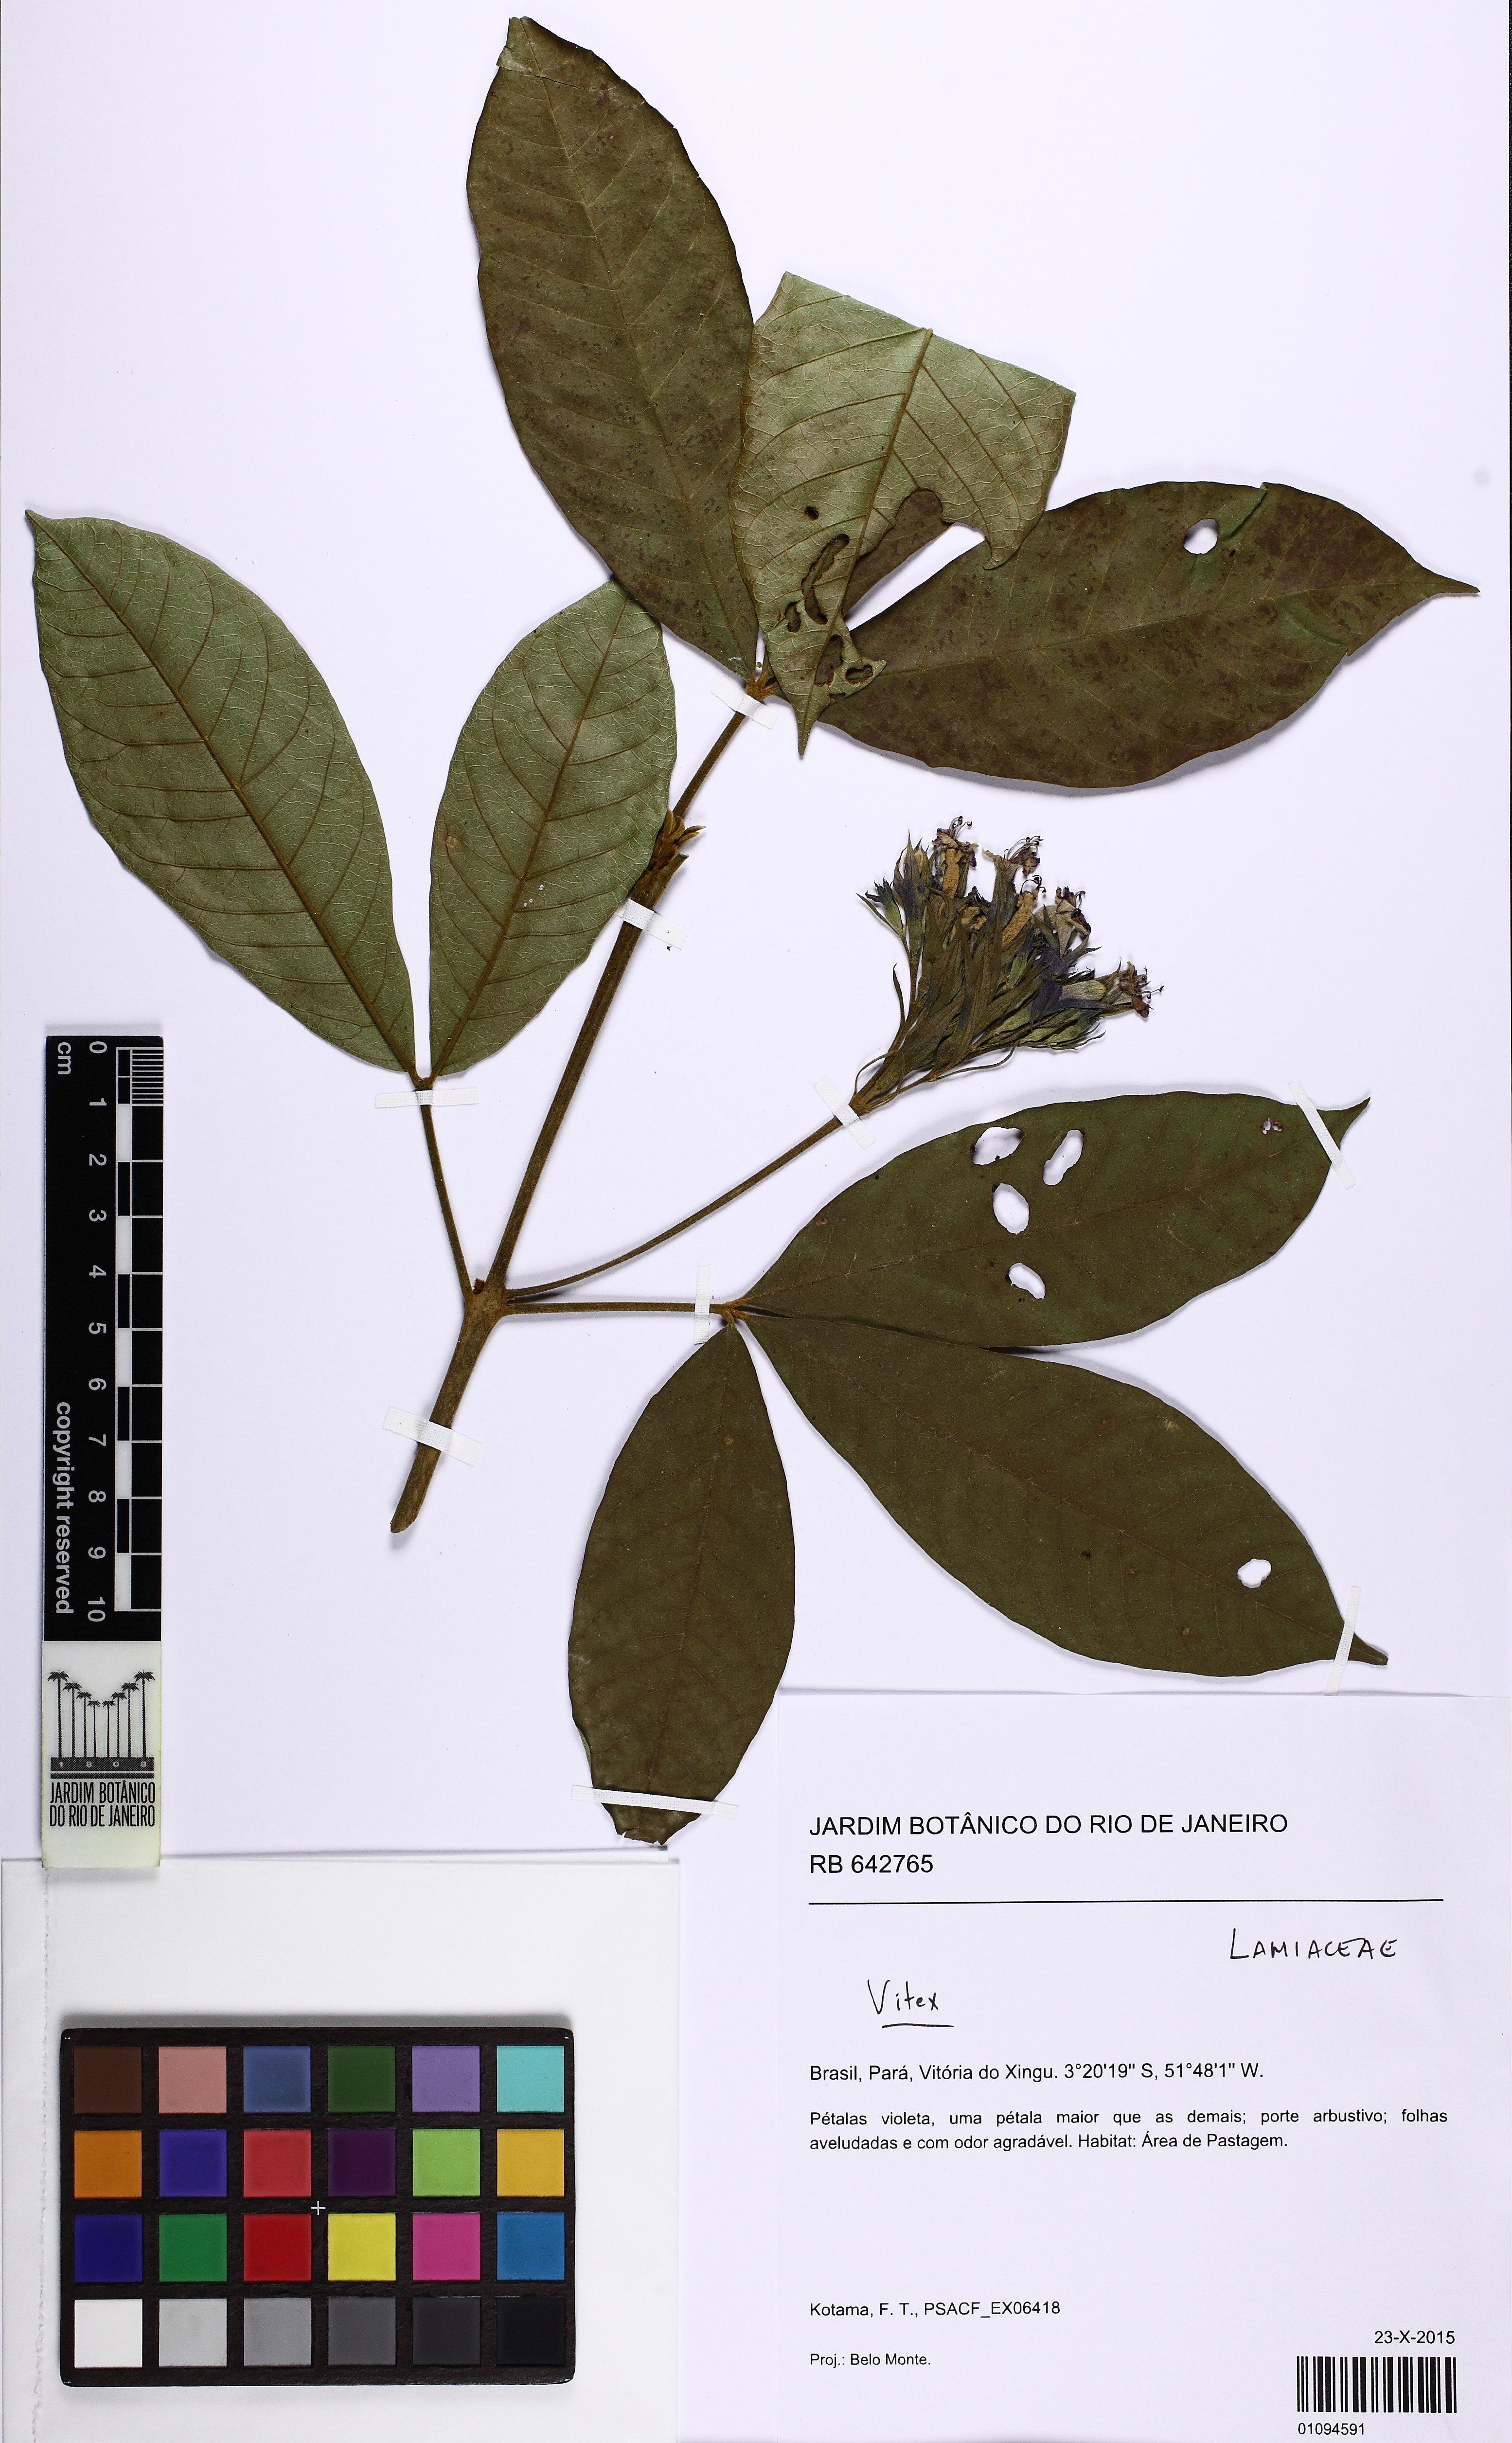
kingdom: Plantae
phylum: Tracheophyta
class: Magnoliopsida
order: Lamiales
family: Lamiaceae
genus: Vitex
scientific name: Vitex
